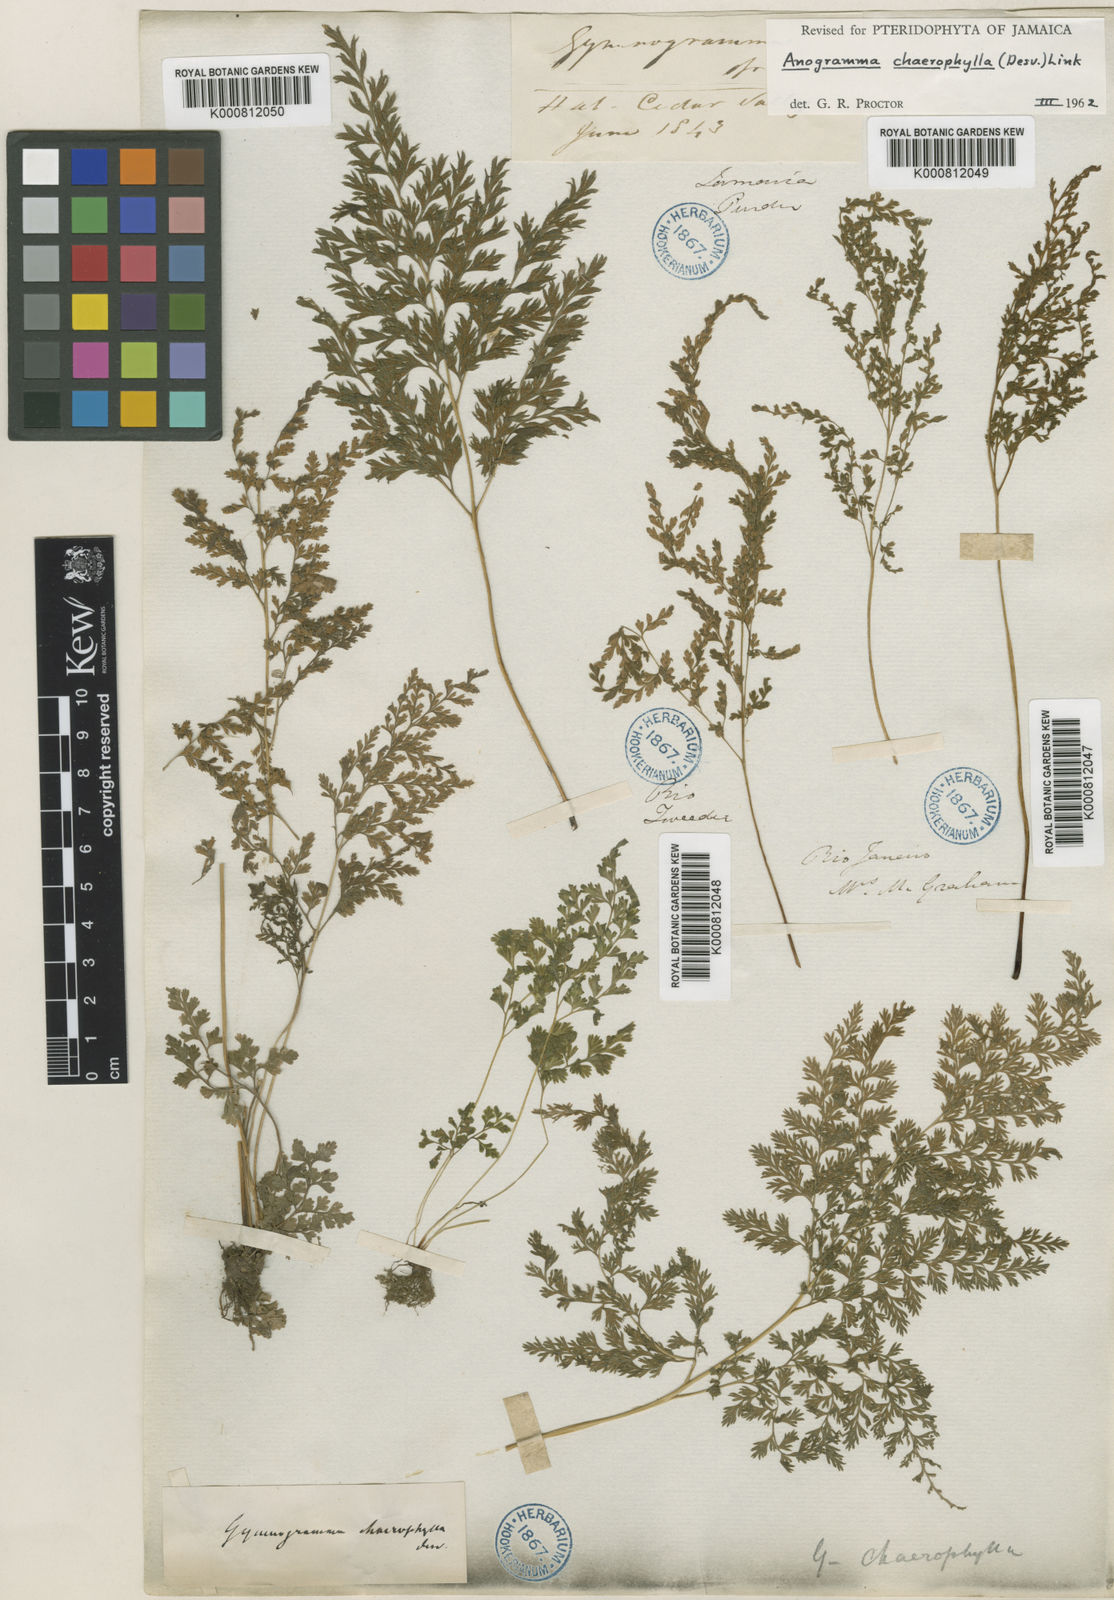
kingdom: Plantae
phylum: Tracheophyta
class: Polypodiopsida
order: Polypodiales
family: Pteridaceae
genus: Gastoniella
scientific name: Gastoniella chaerophylla
